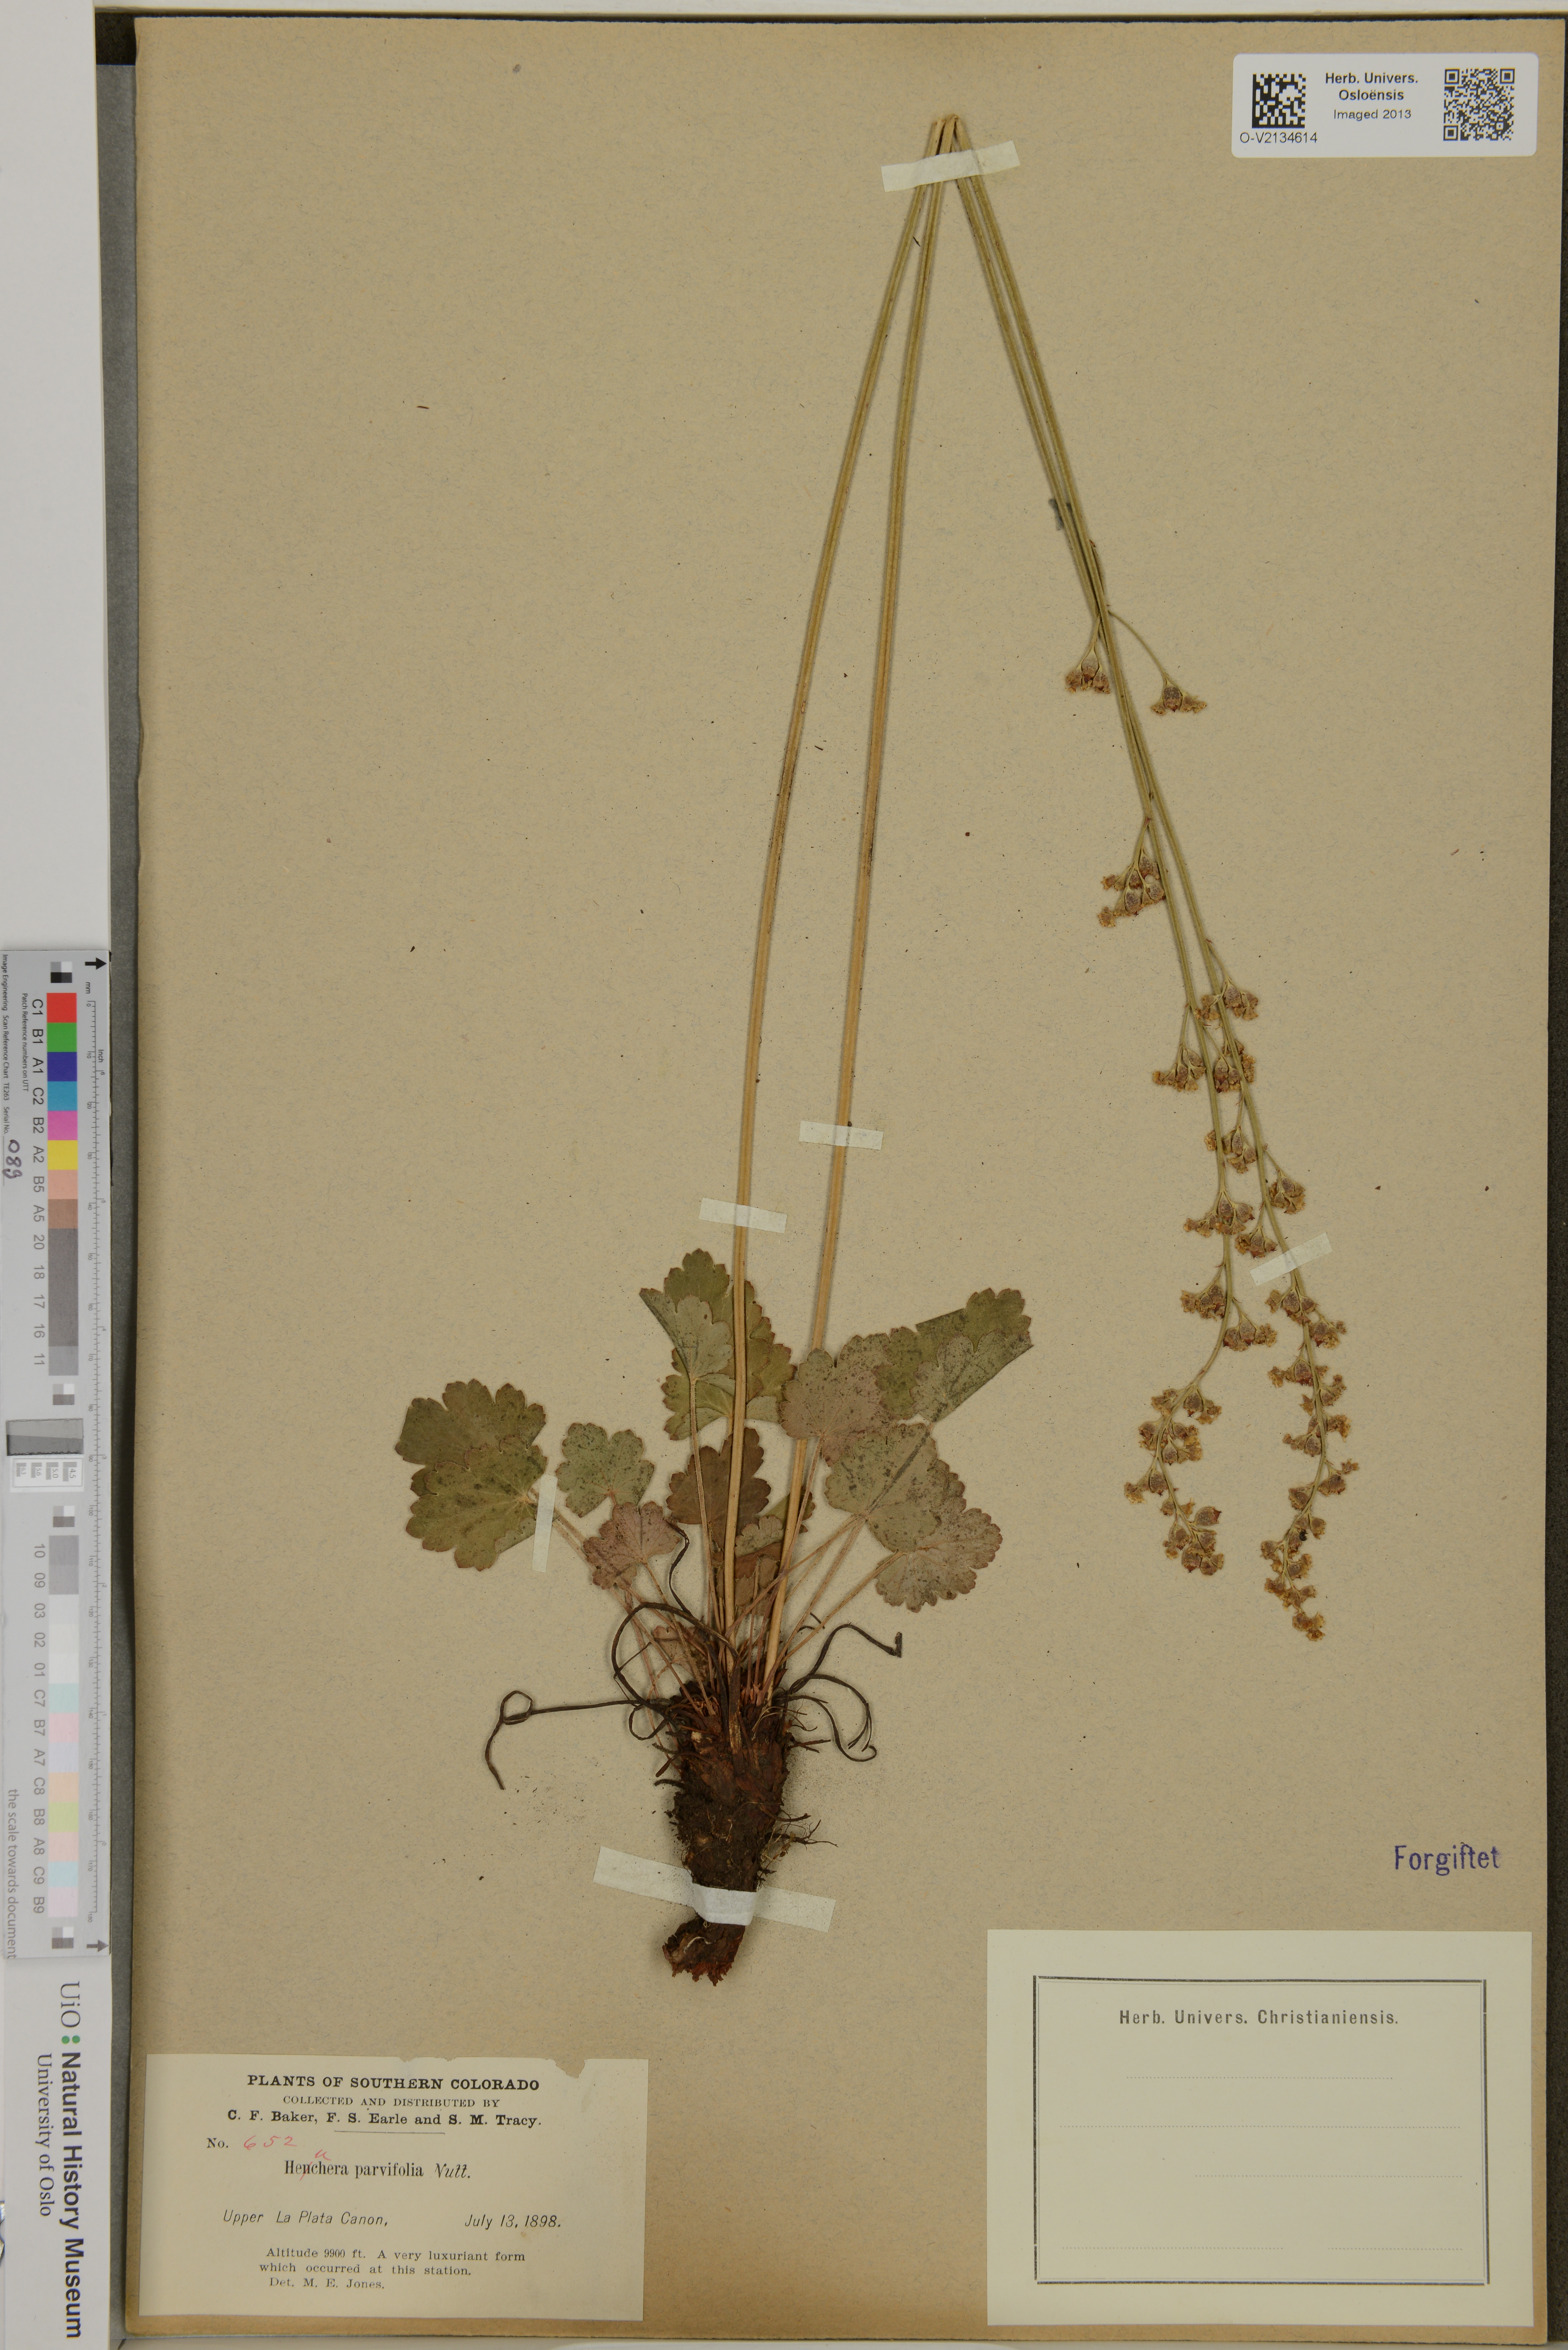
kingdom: Plantae
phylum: Tracheophyta
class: Magnoliopsida
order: Saxifragales
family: Saxifragaceae
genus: Heuchera
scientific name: Heuchera parvifolia
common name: Common alumroot
